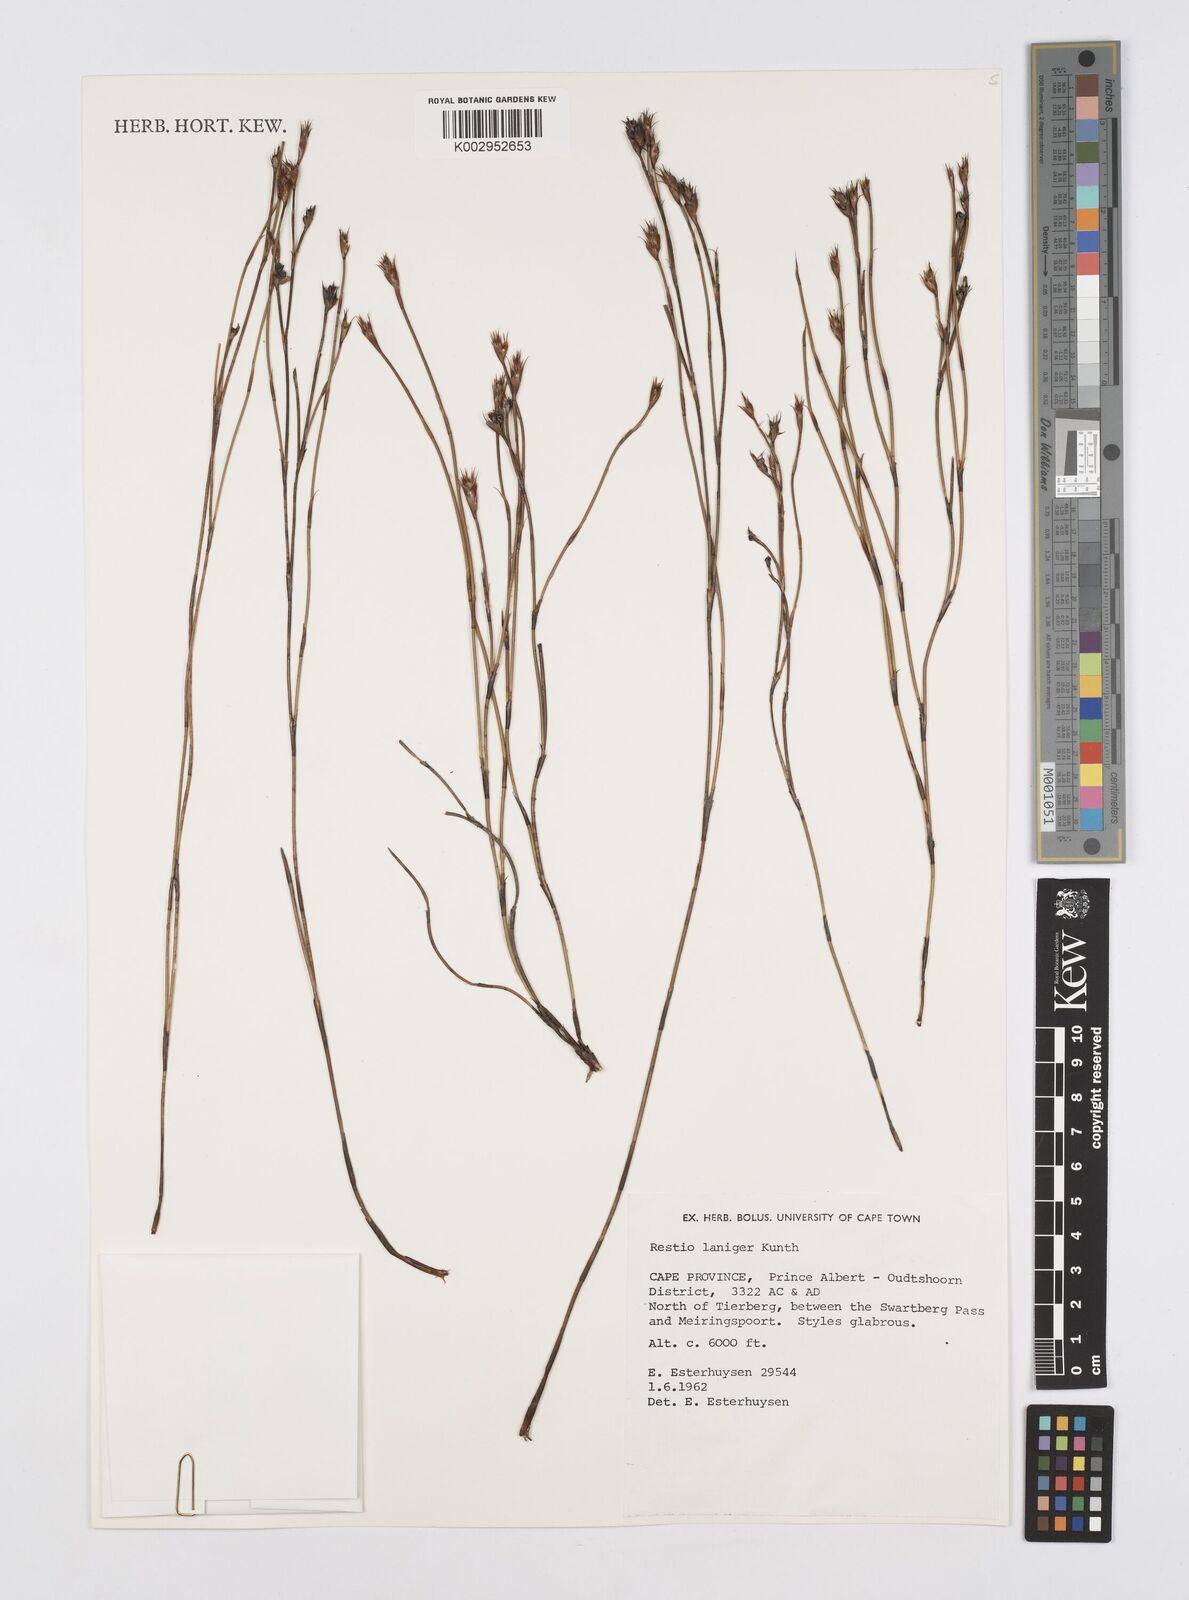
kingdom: Plantae
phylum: Tracheophyta
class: Liliopsida
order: Poales
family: Restionaceae
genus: Restio
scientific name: Restio laniger
